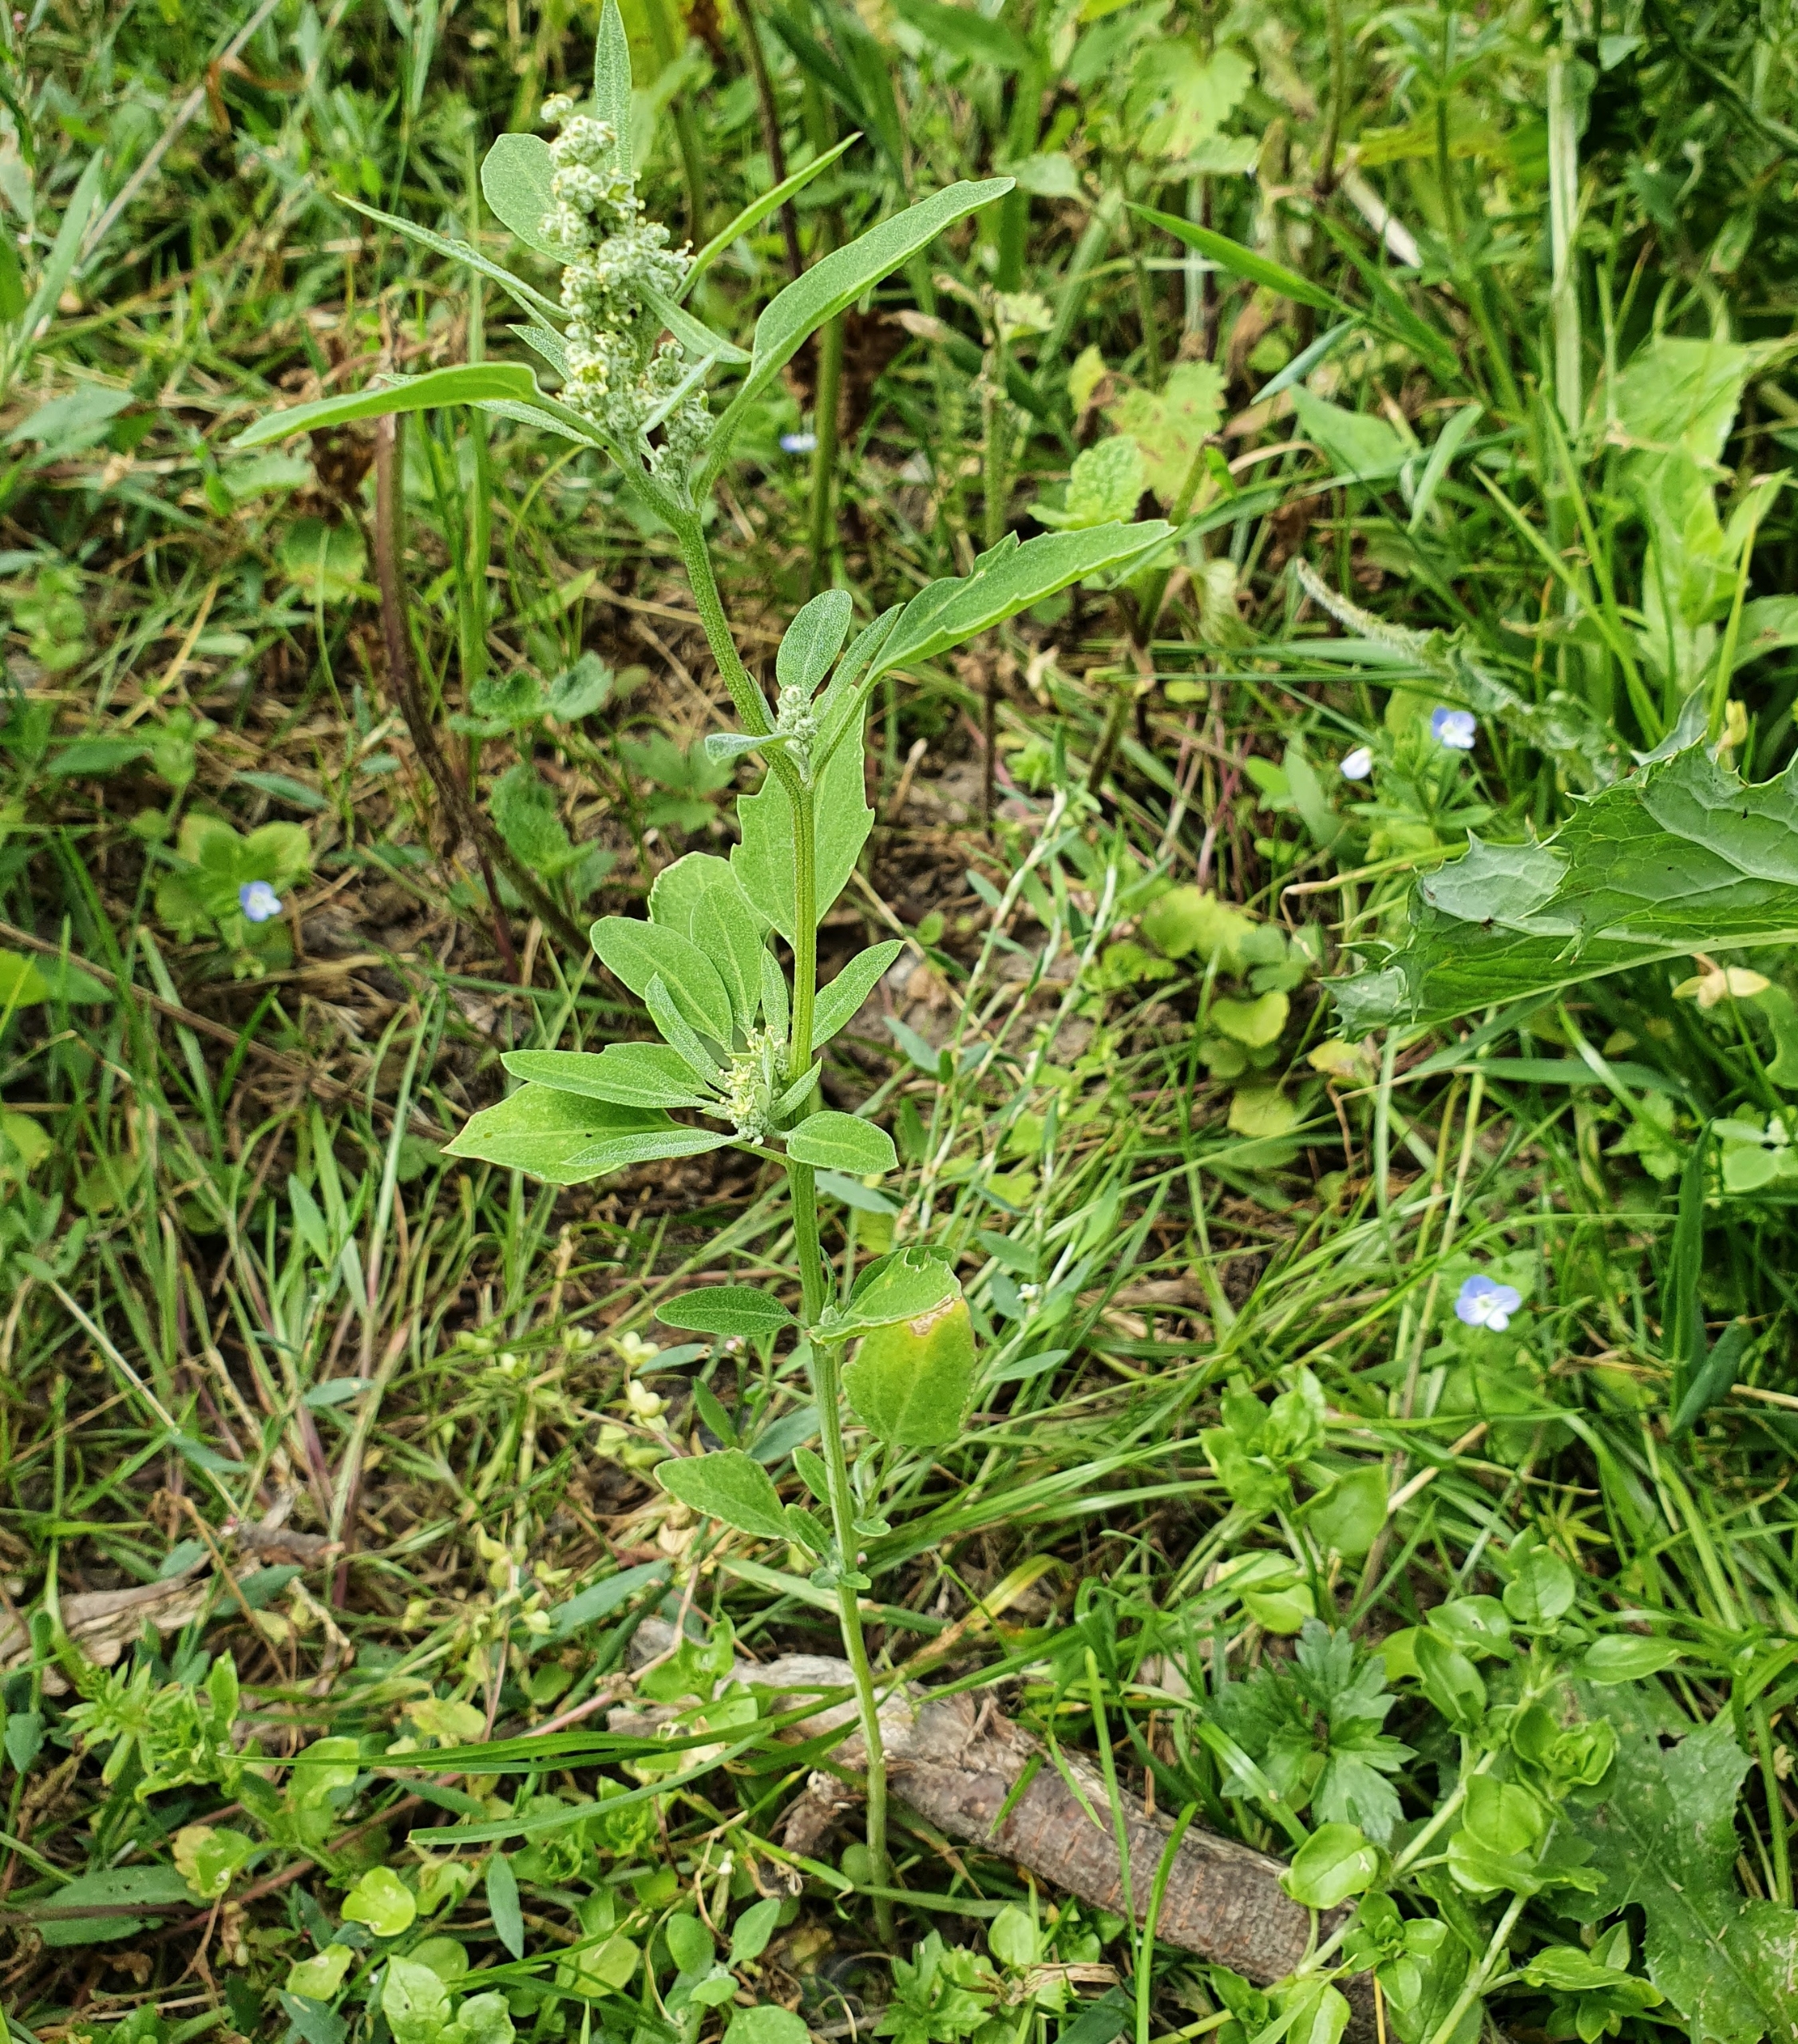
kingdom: Plantae
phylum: Tracheophyta
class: Magnoliopsida
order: Caryophyllales
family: Amaranthaceae
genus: Chenopodium
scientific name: Chenopodium album
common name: Hvidmelet gåsefod
